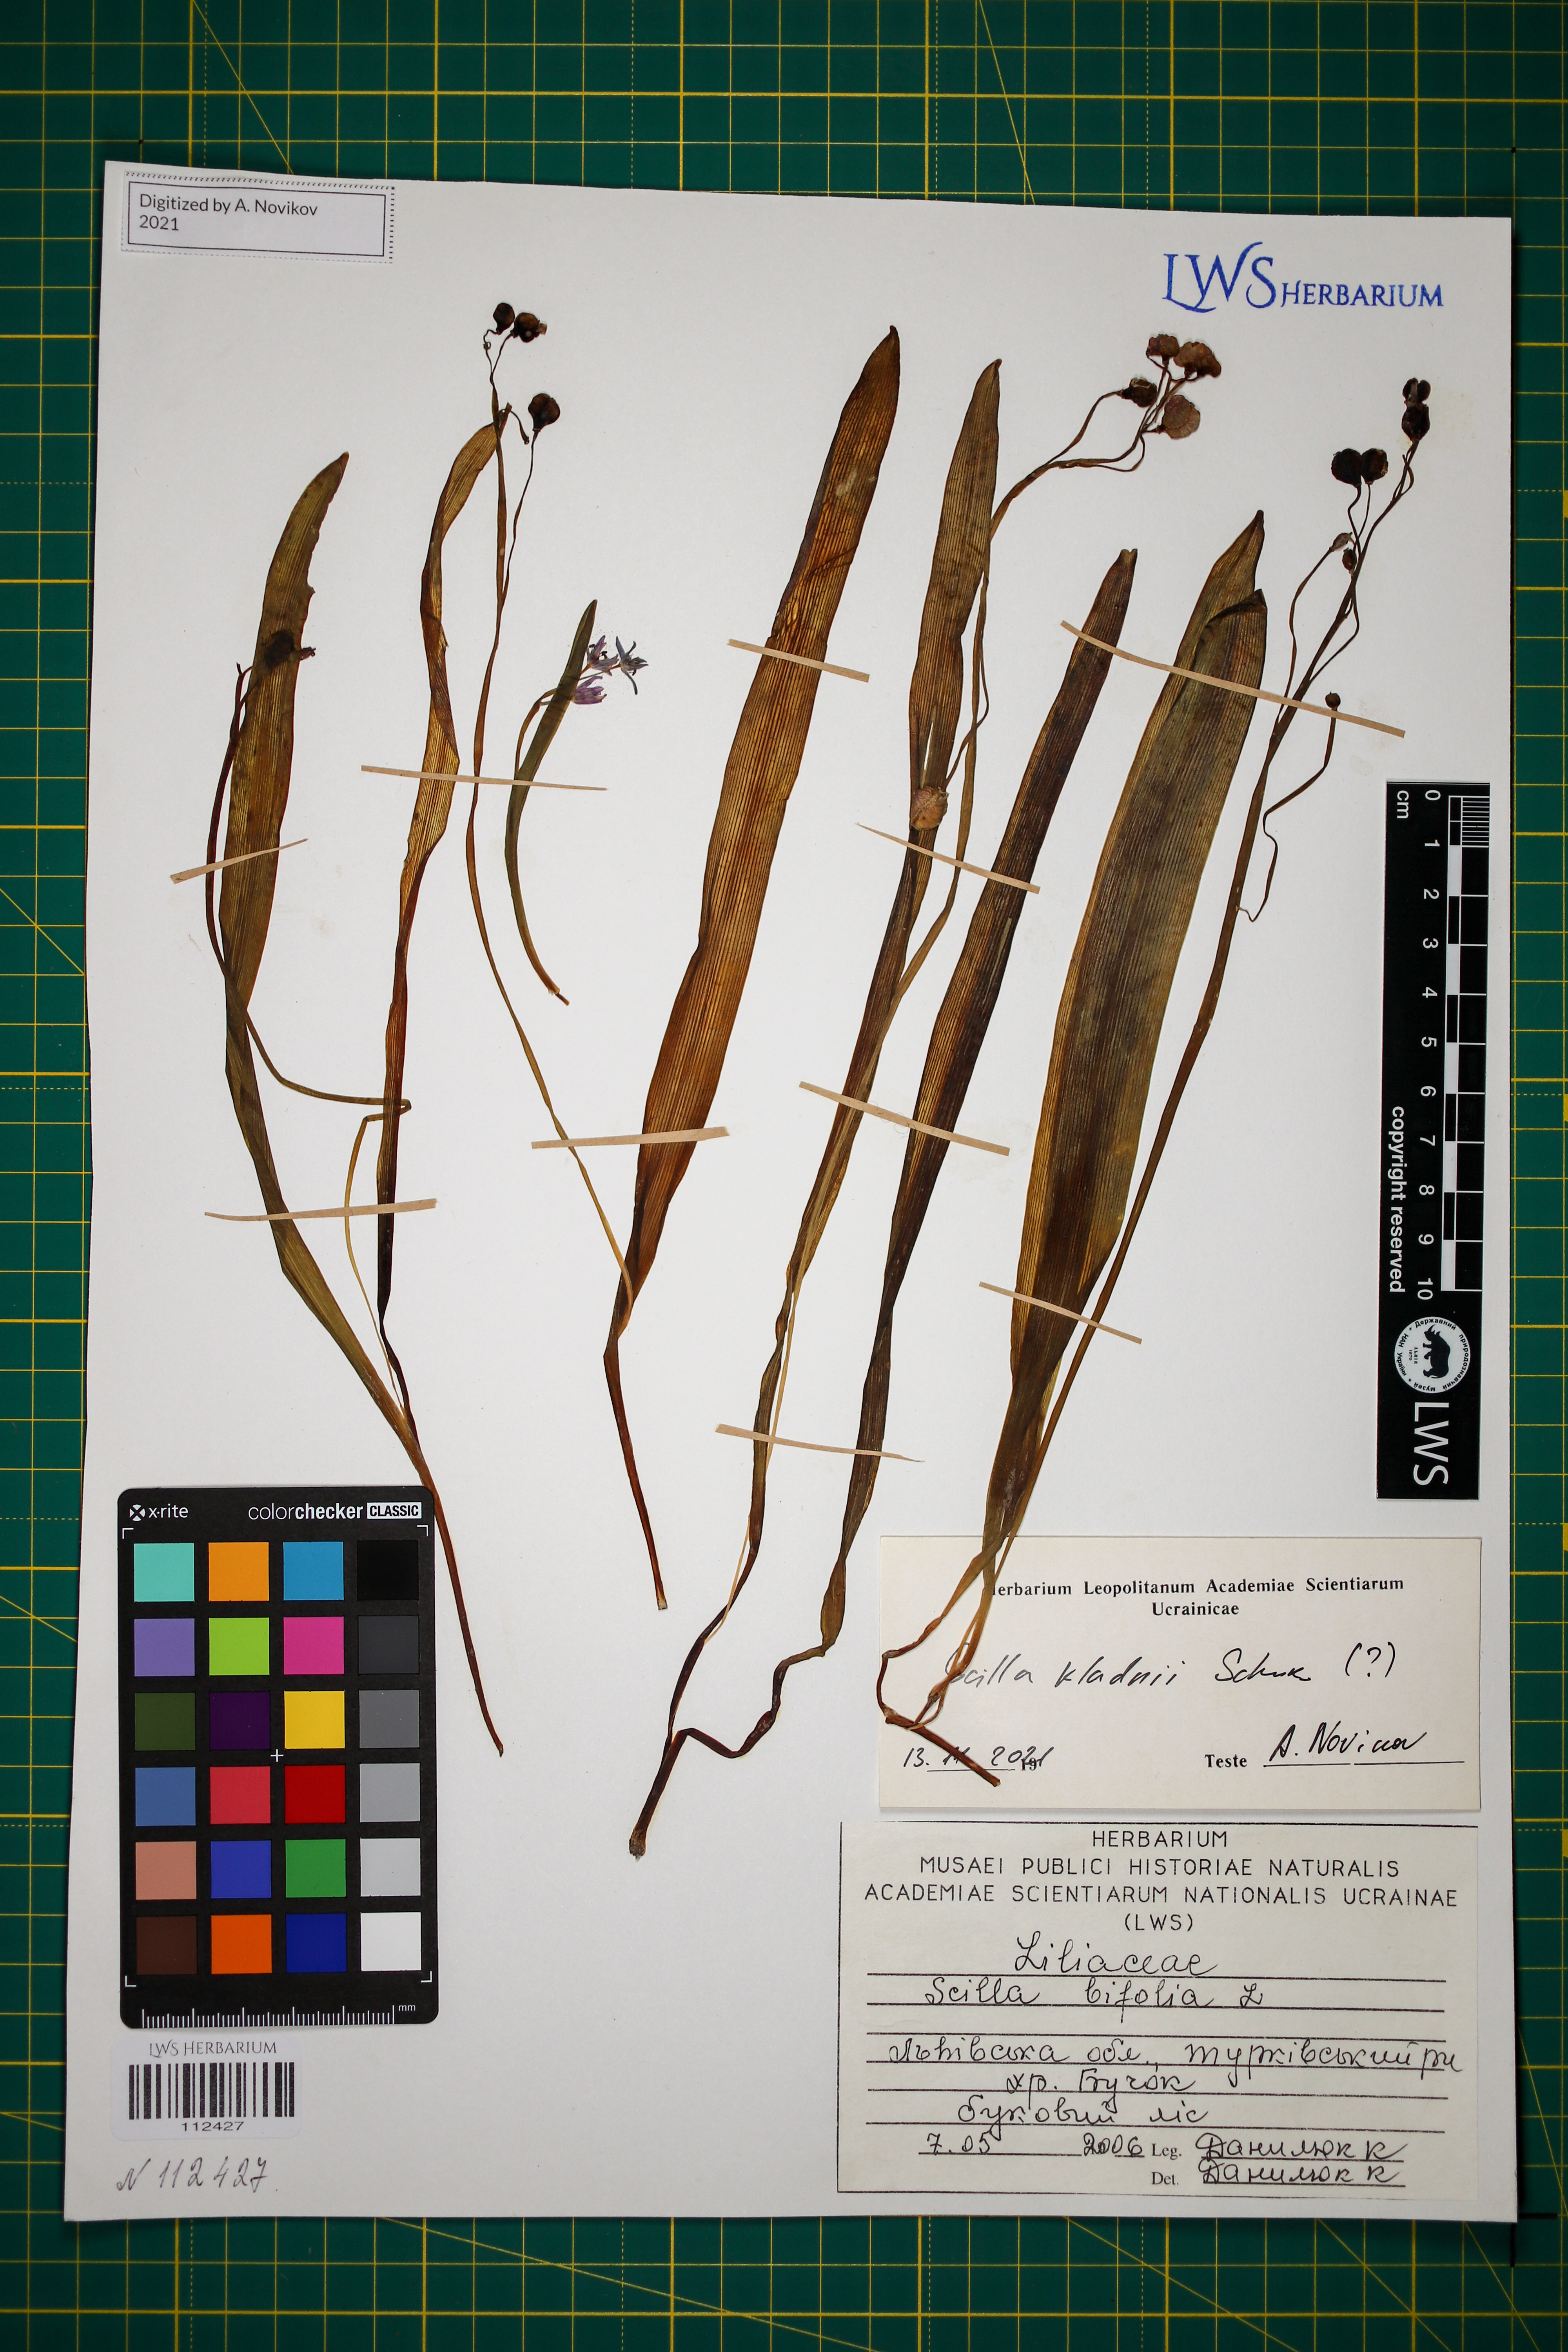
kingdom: Plantae
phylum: Tracheophyta
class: Liliopsida
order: Asparagales
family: Asparagaceae
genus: Scilla
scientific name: Scilla kladnii
